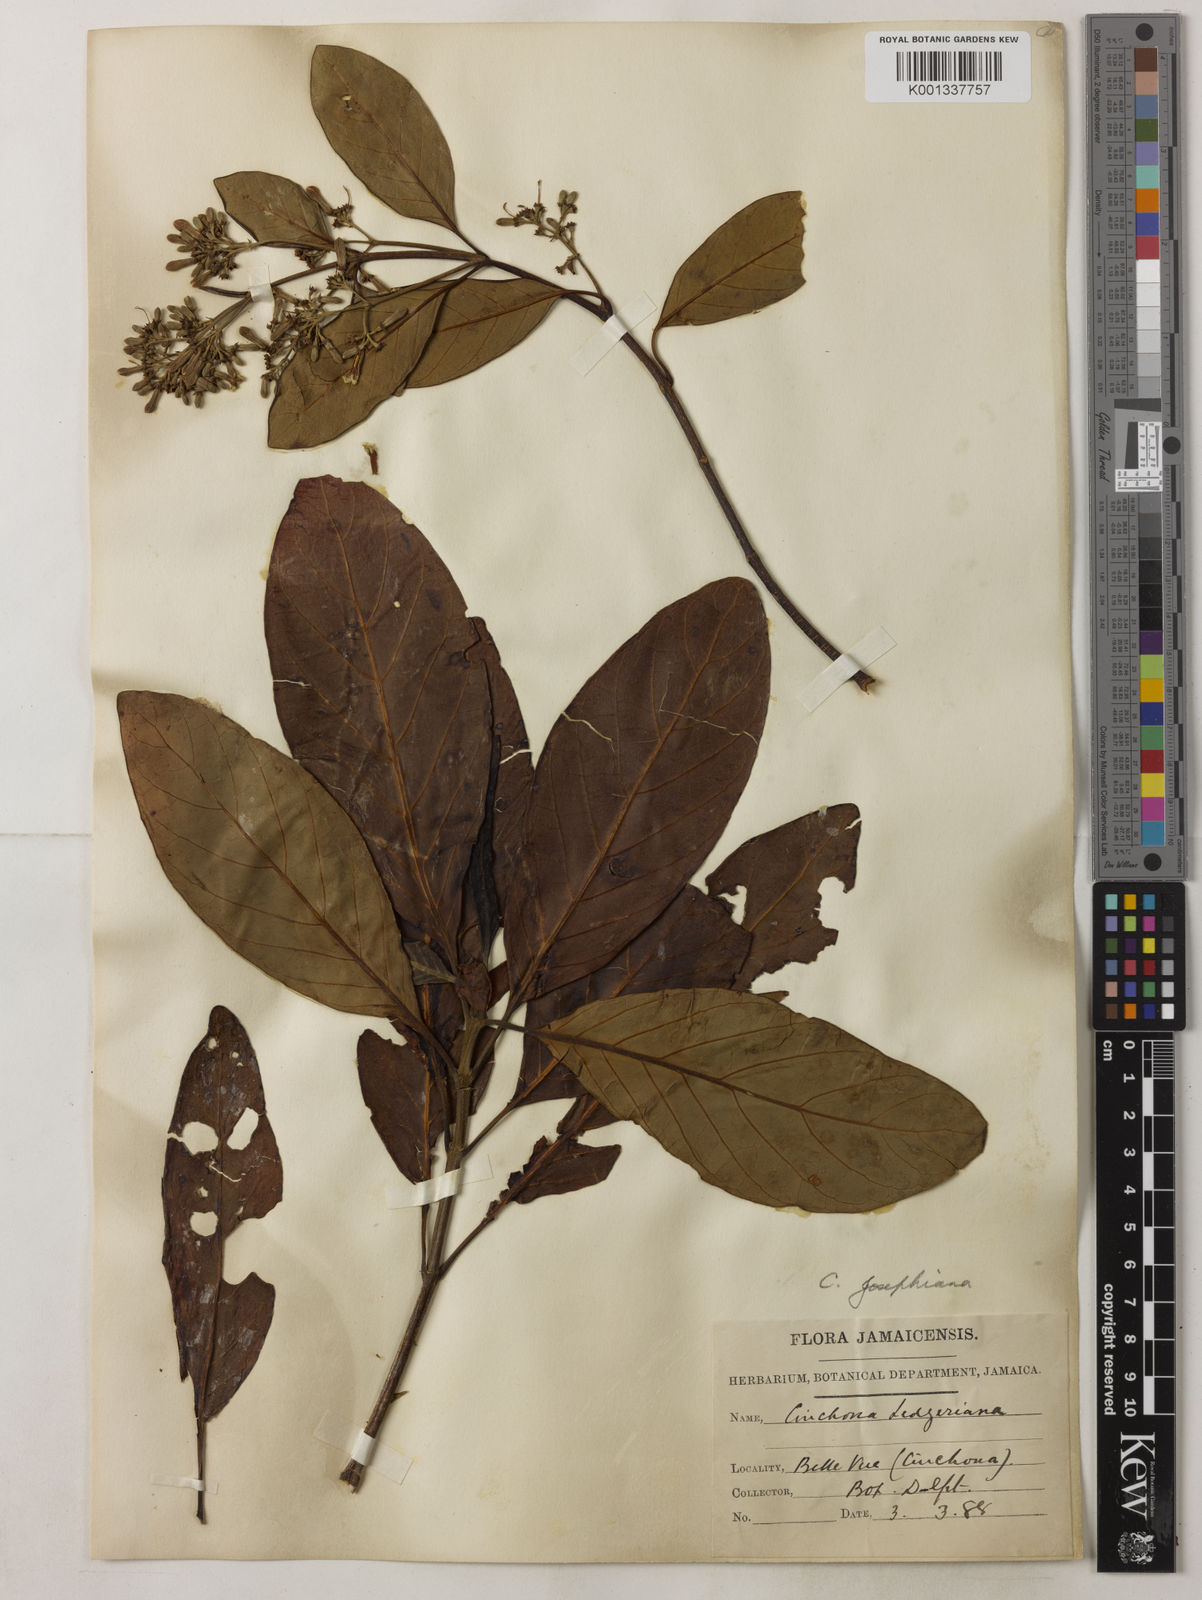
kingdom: Plantae
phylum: Tracheophyta
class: Magnoliopsida
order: Gentianales
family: Rubiaceae
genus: Cinchona
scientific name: Cinchona calisaya
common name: Ledgerbark
